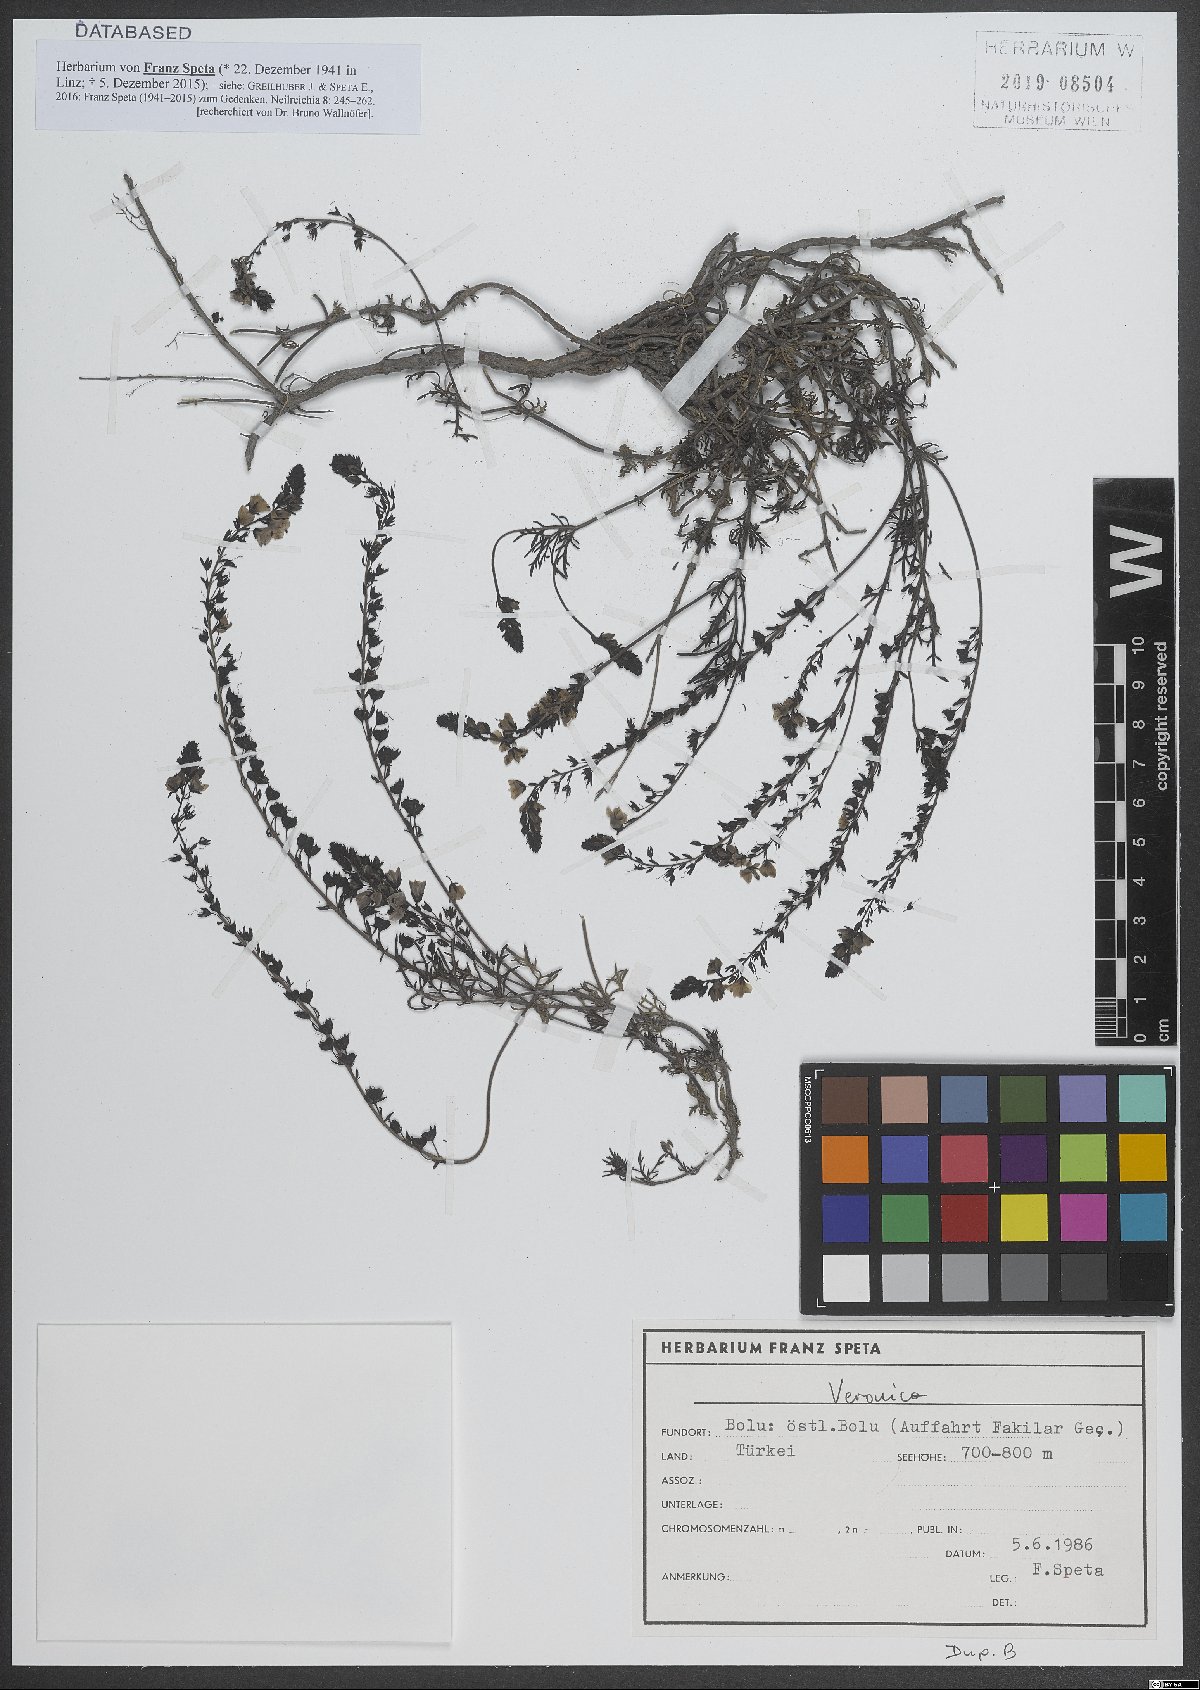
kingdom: Plantae
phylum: Tracheophyta
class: Magnoliopsida
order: Lamiales
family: Plantaginaceae
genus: Veronica
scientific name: Veronica
